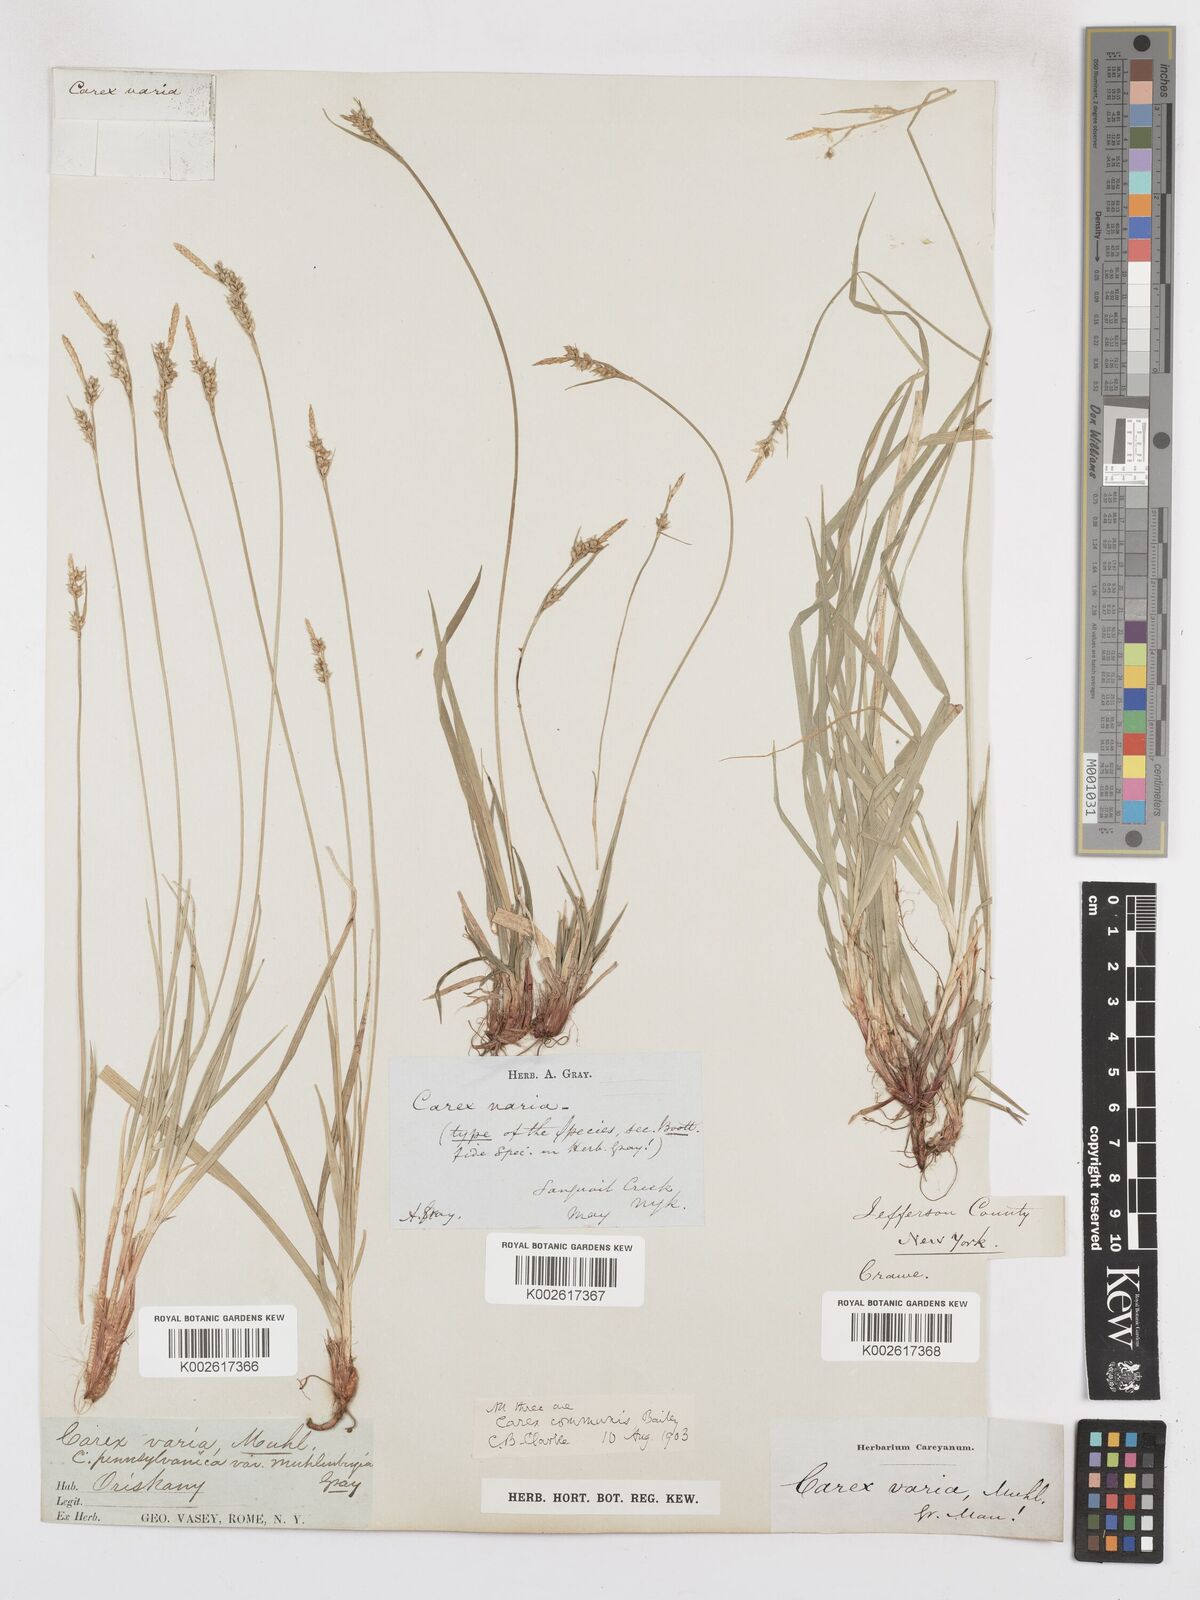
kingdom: Plantae
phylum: Tracheophyta
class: Liliopsida
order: Poales
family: Cyperaceae
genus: Carex
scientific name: Carex communis
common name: Colonial oak sedge
